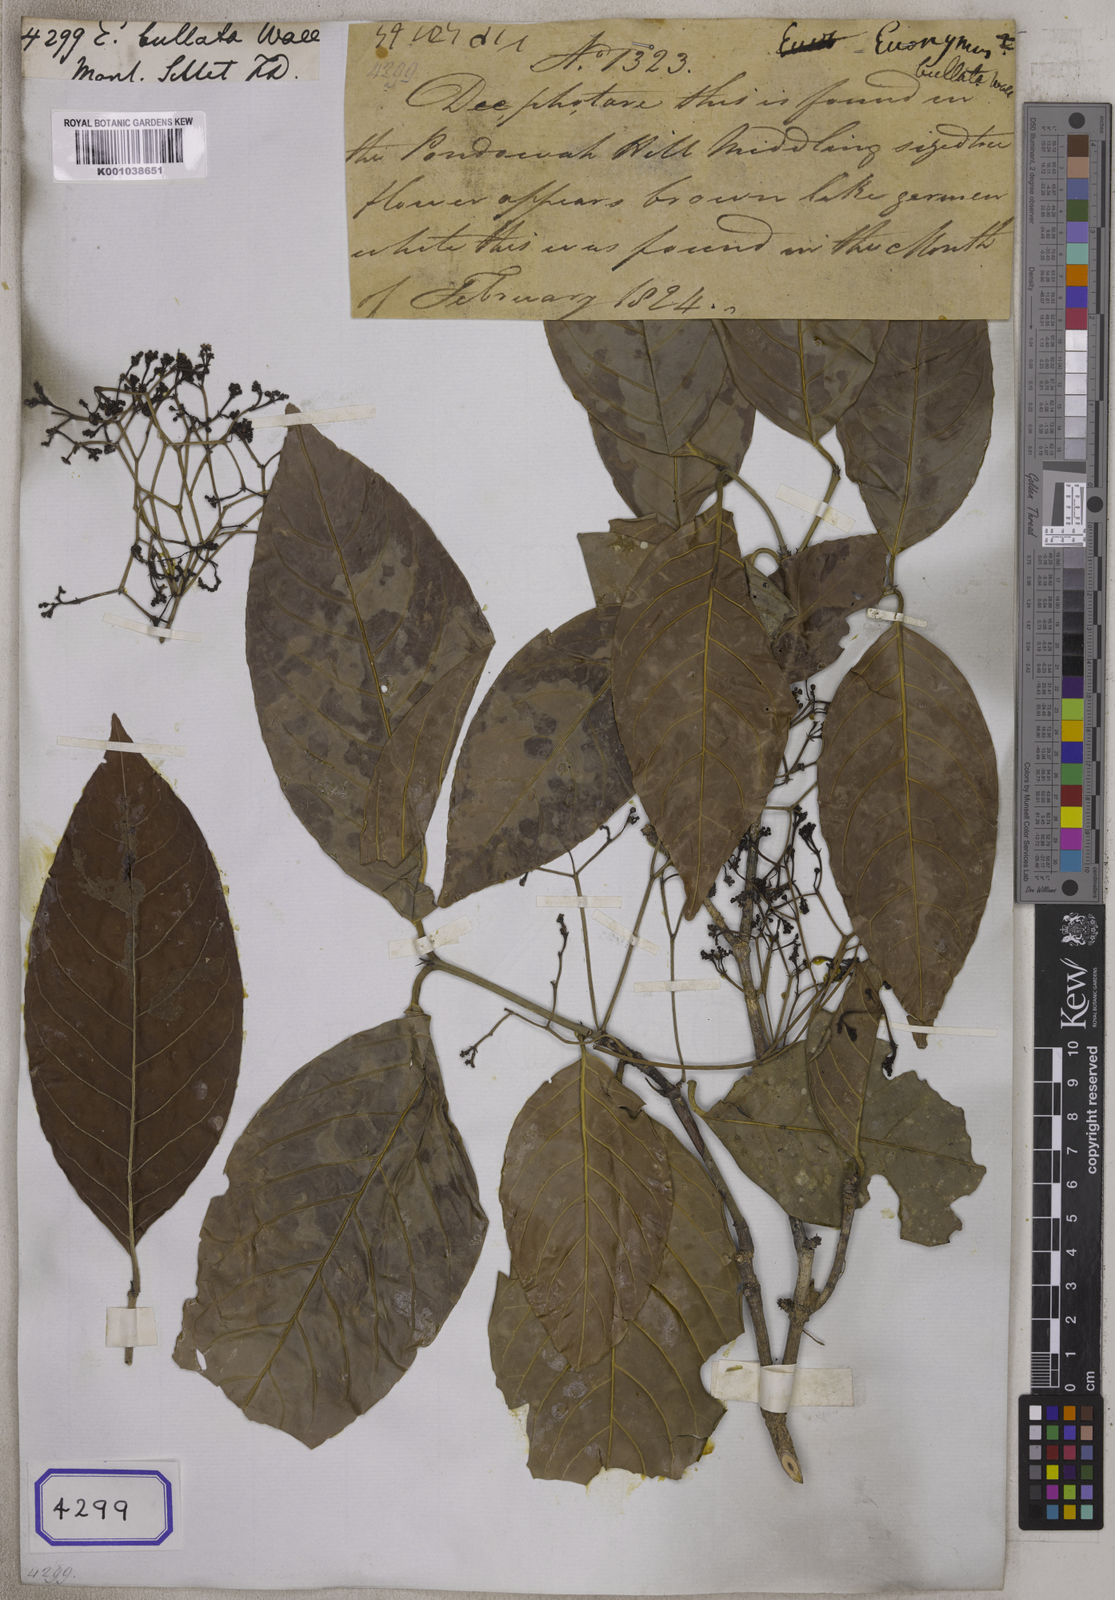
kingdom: Plantae
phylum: Tracheophyta
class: Magnoliopsida
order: Celastrales
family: Celastraceae
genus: Euonymus
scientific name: Euonymus
